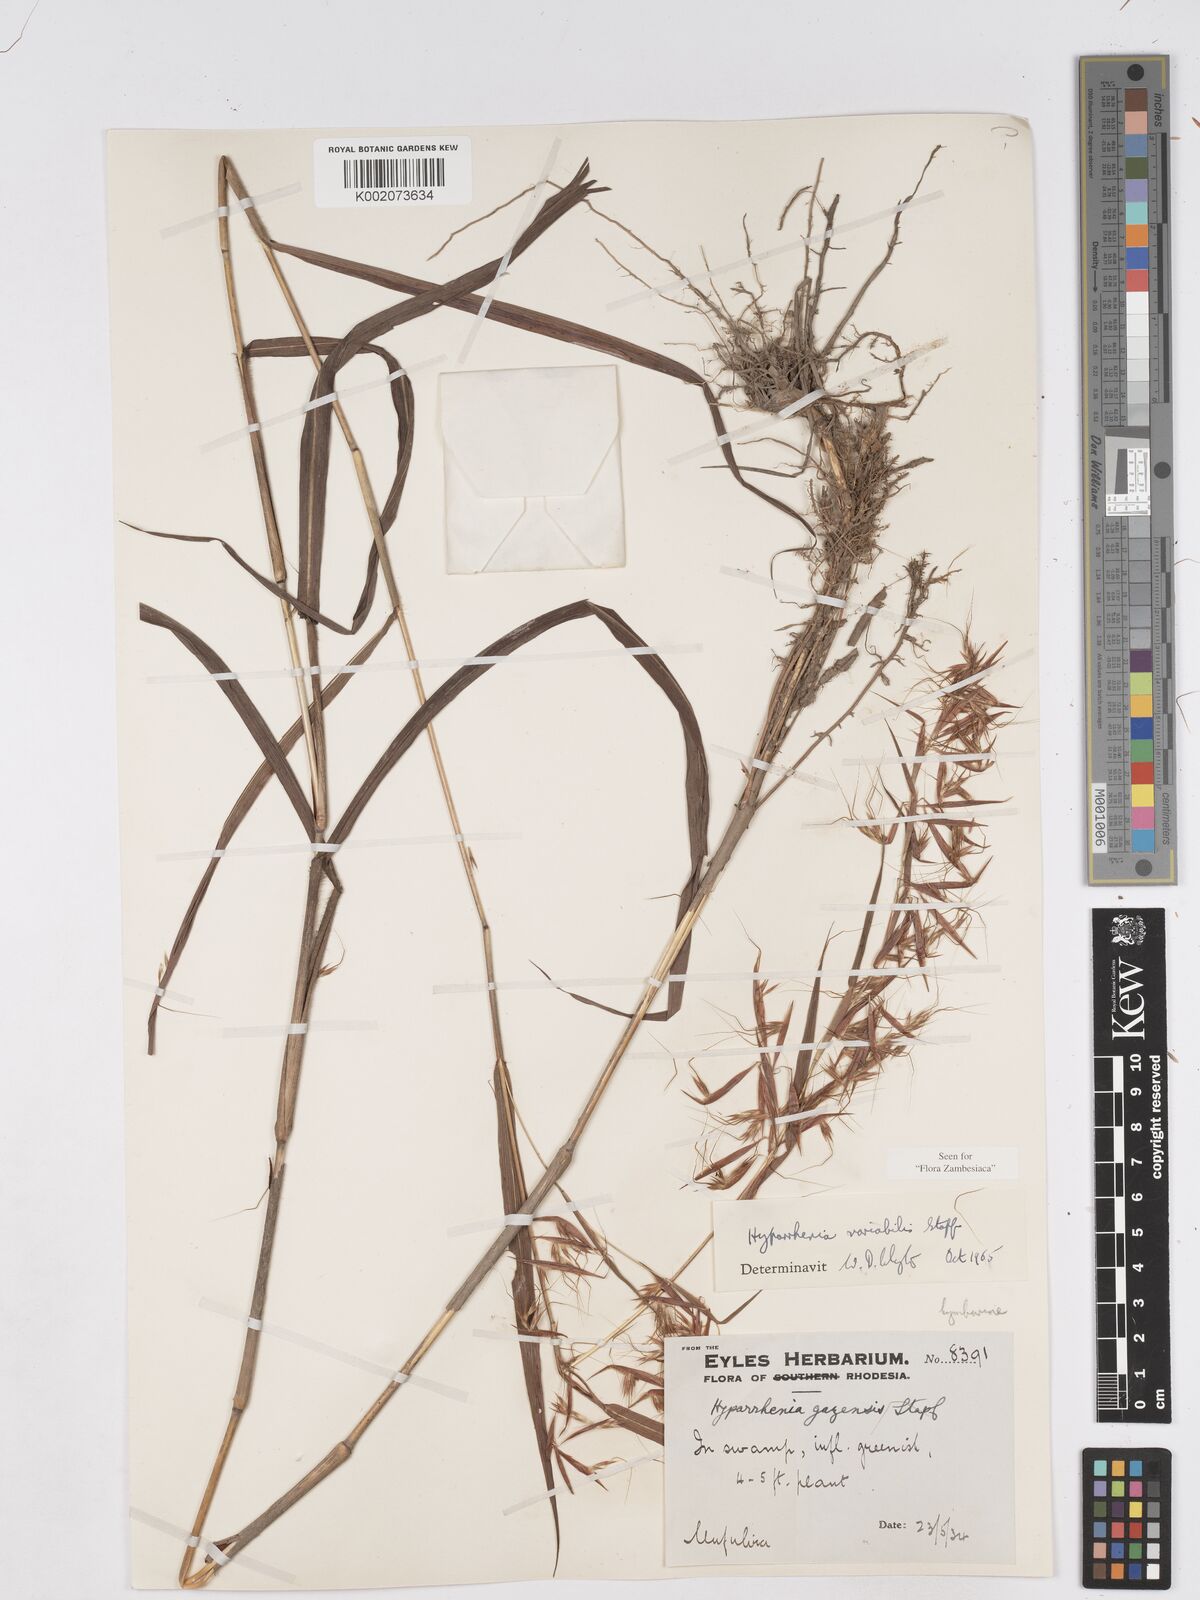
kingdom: Plantae
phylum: Tracheophyta
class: Liliopsida
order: Poales
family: Poaceae
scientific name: Poaceae
